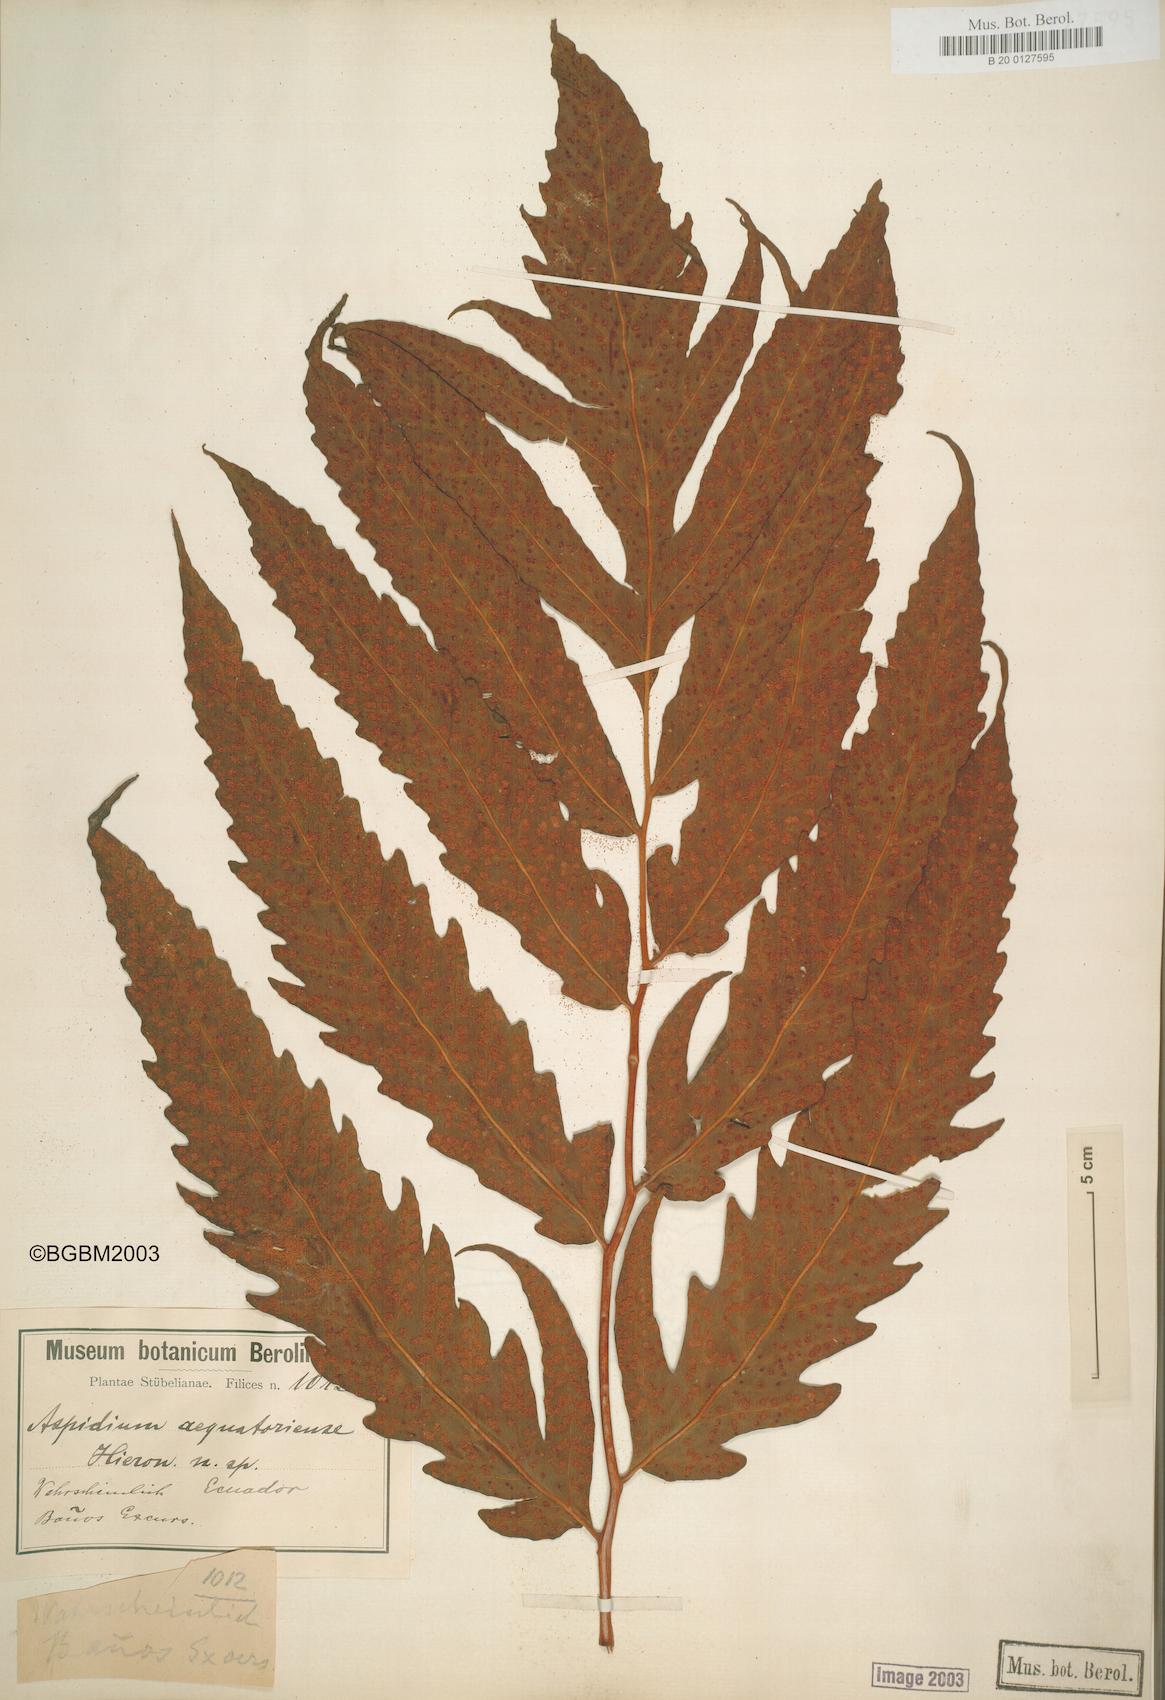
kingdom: Plantae
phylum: Tracheophyta
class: Polypodiopsida
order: Polypodiales
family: Tectariaceae
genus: Tectaria
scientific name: Tectaria aequatoriensis
